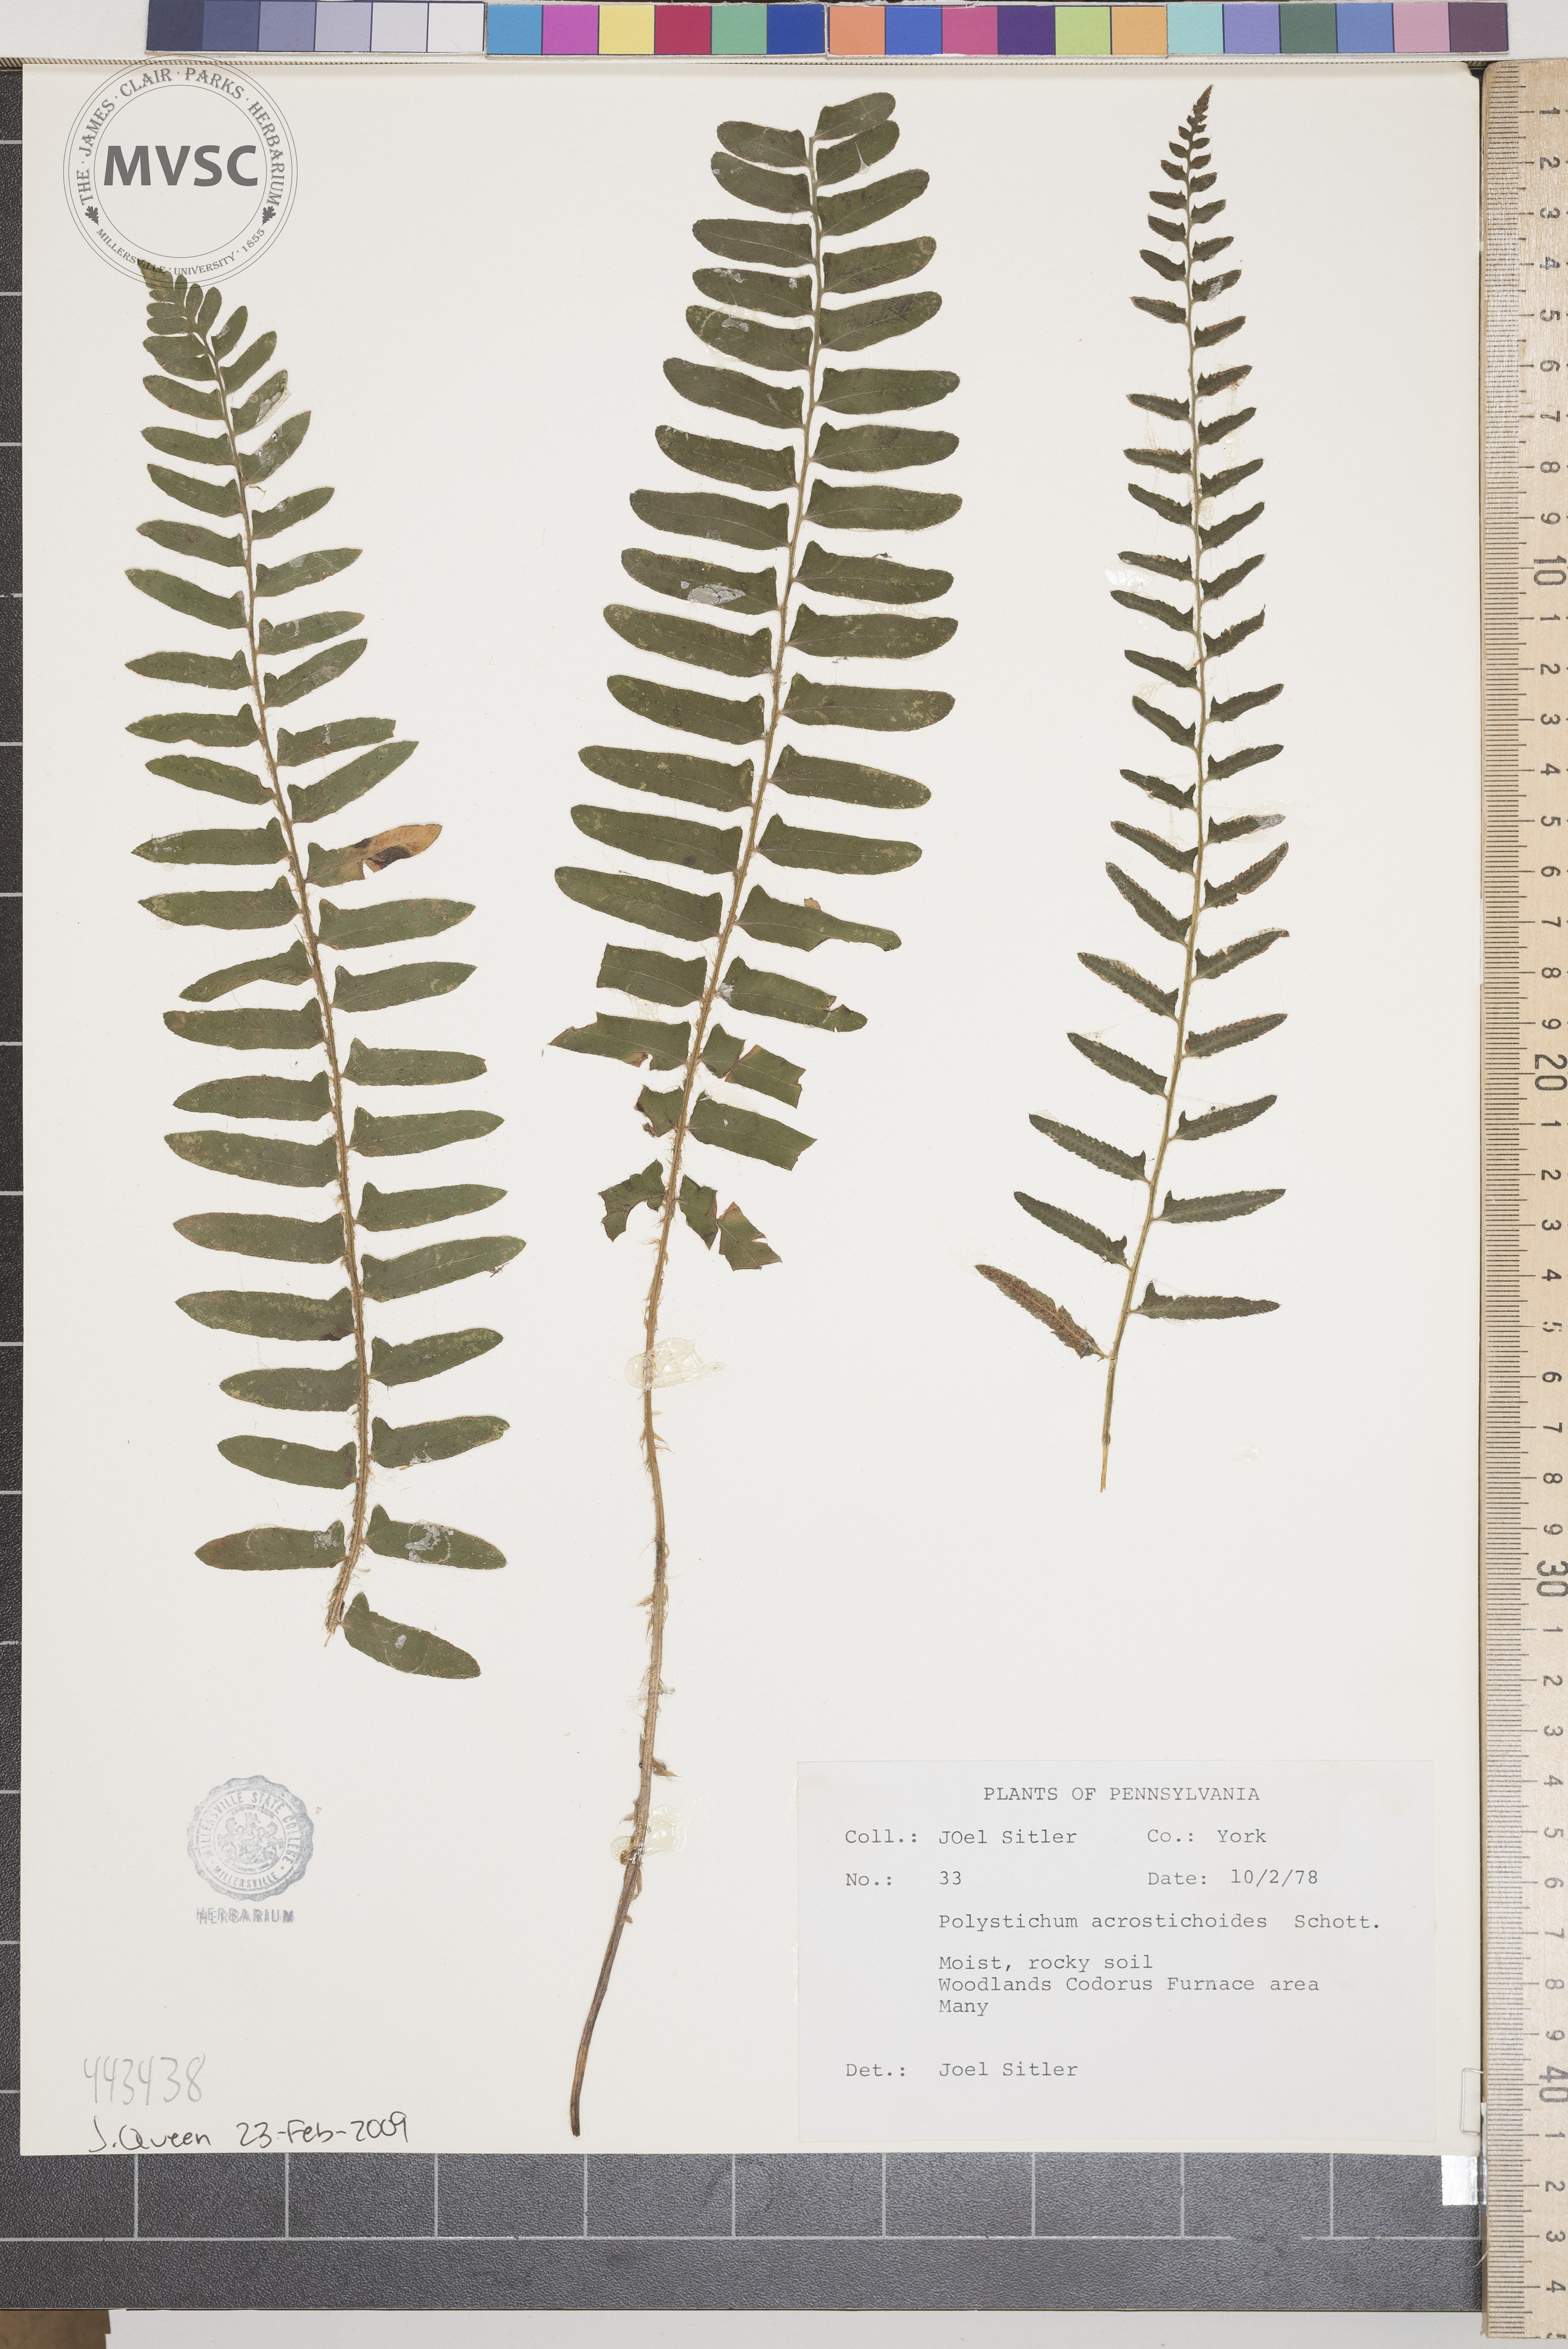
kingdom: Plantae
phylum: Tracheophyta
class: Polypodiopsida
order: Polypodiales
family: Dryopteridaceae
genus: Polystichum
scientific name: Polystichum acrostichoides
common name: Christmas fern
